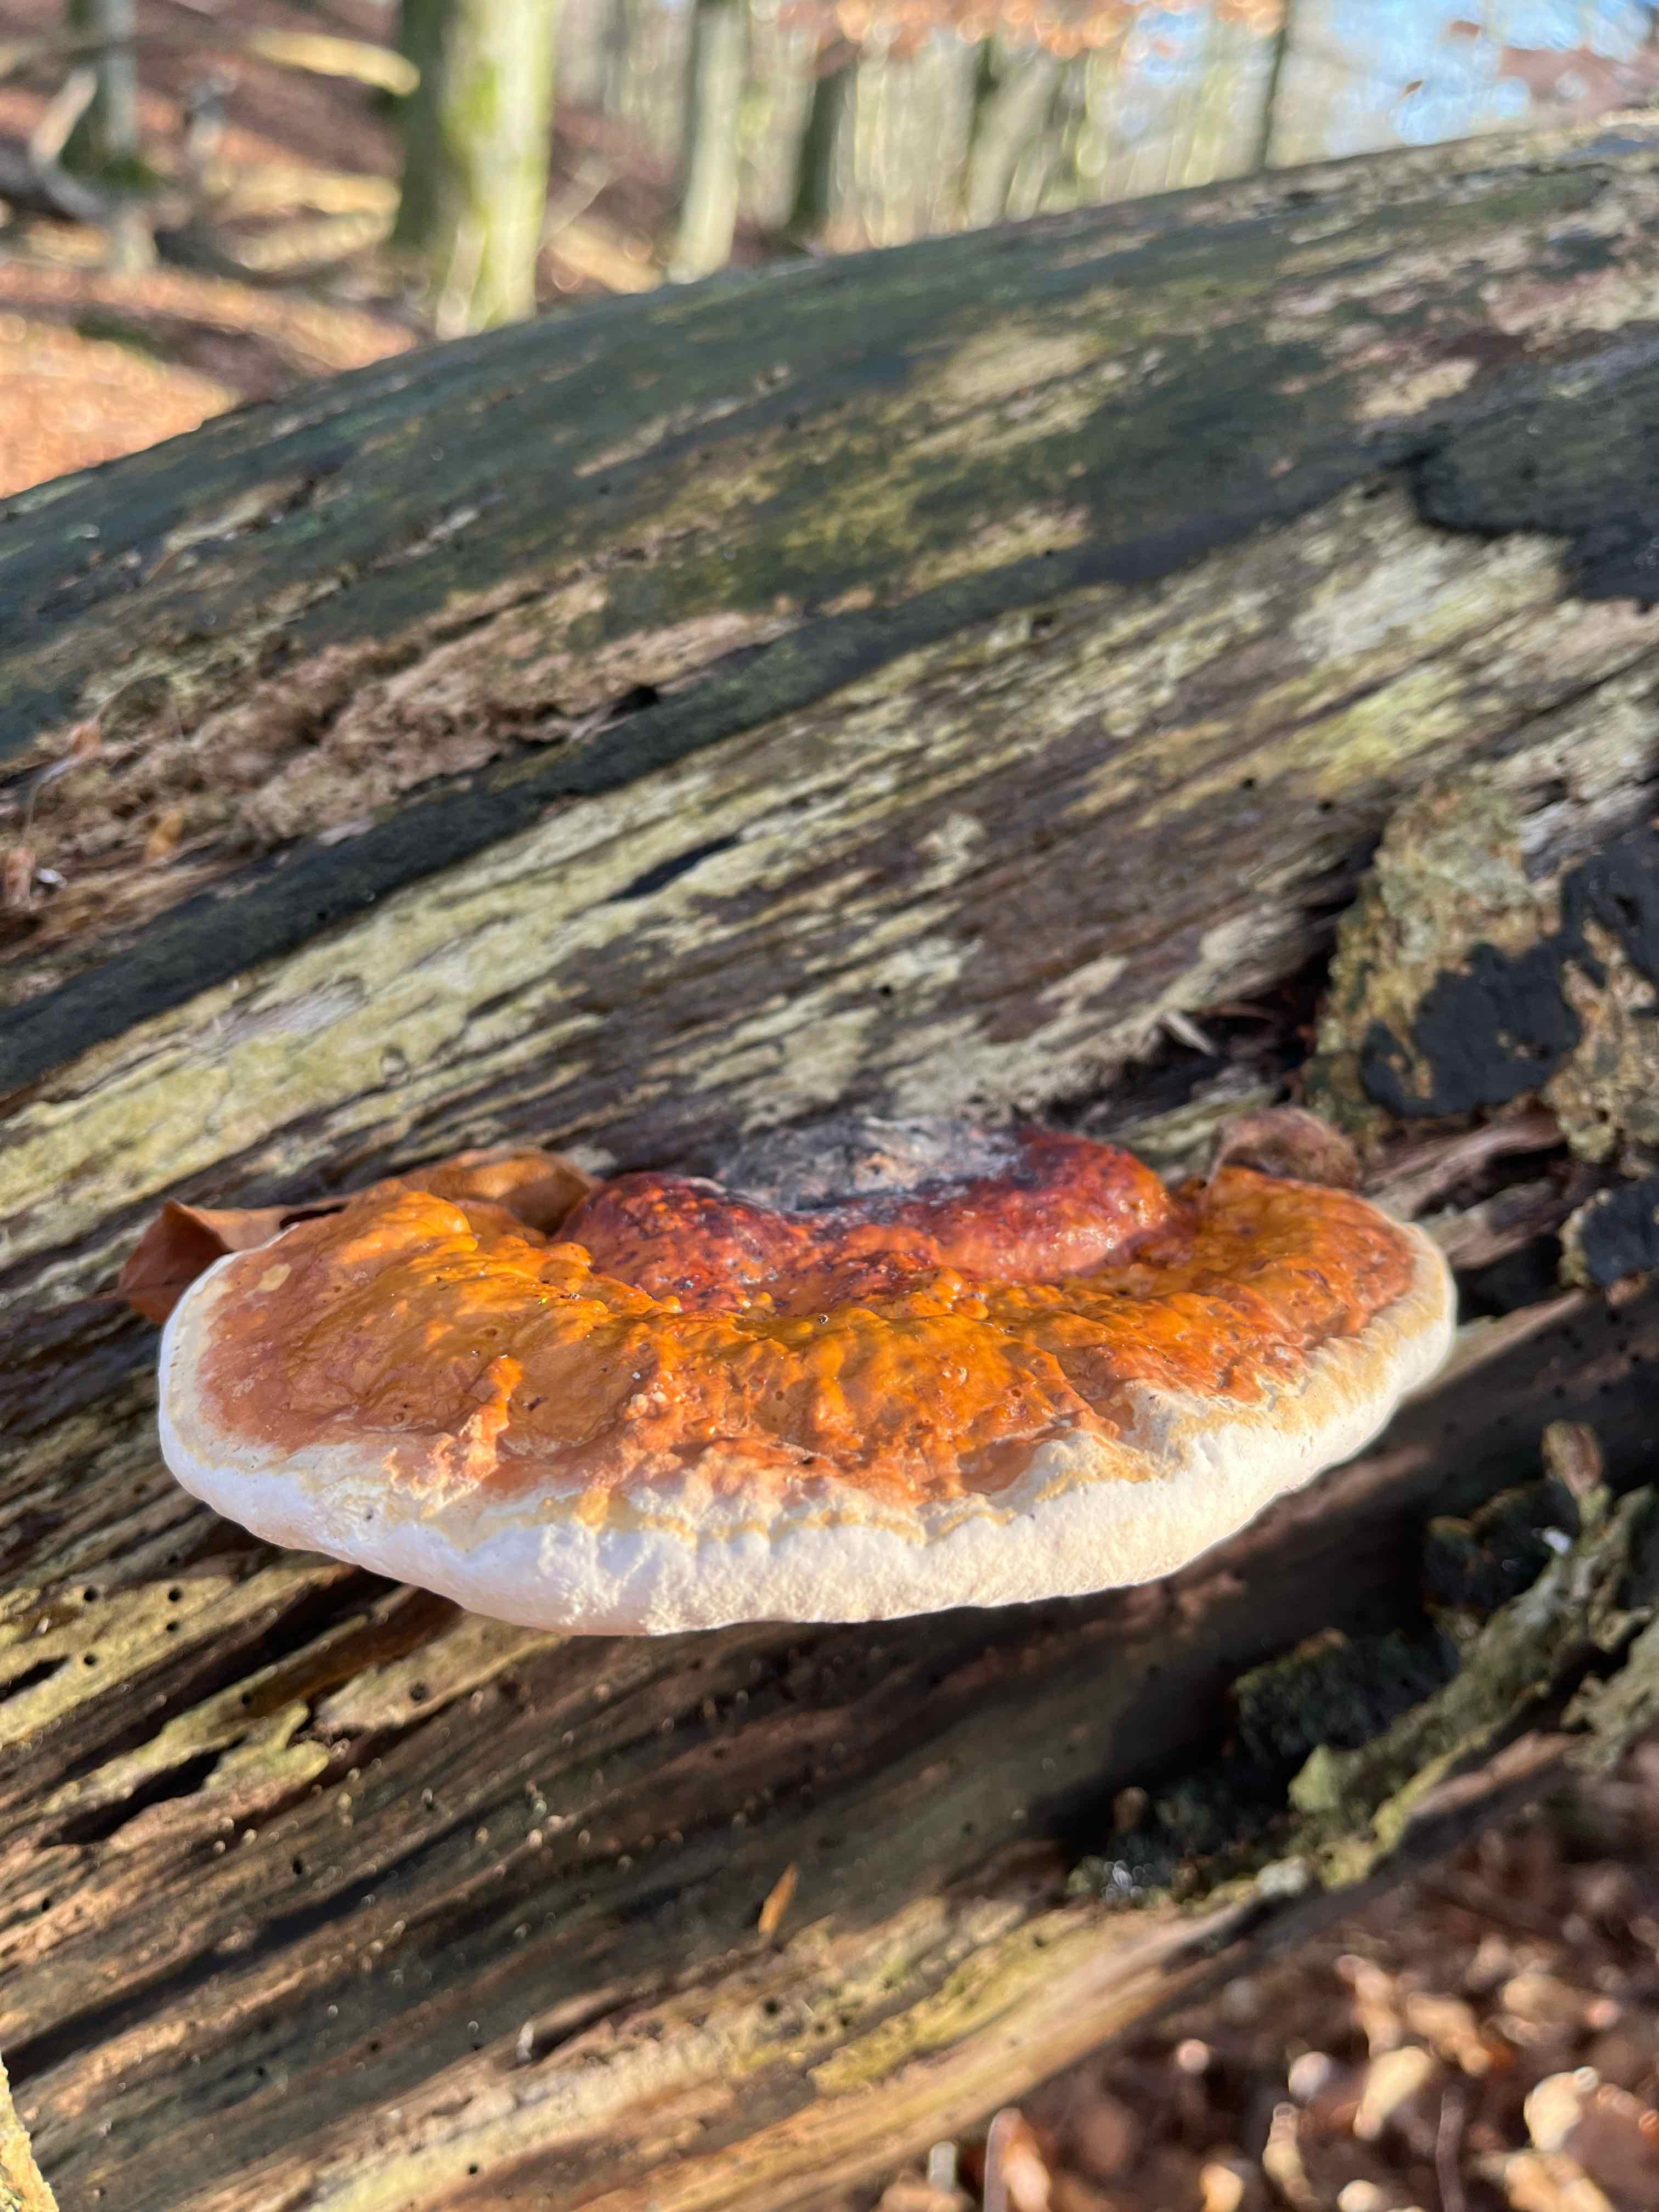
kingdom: Fungi
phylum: Basidiomycota
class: Agaricomycetes
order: Polyporales
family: Fomitopsidaceae
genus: Fomitopsis
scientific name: Fomitopsis pinicola
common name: randbæltet hovporesvamp
